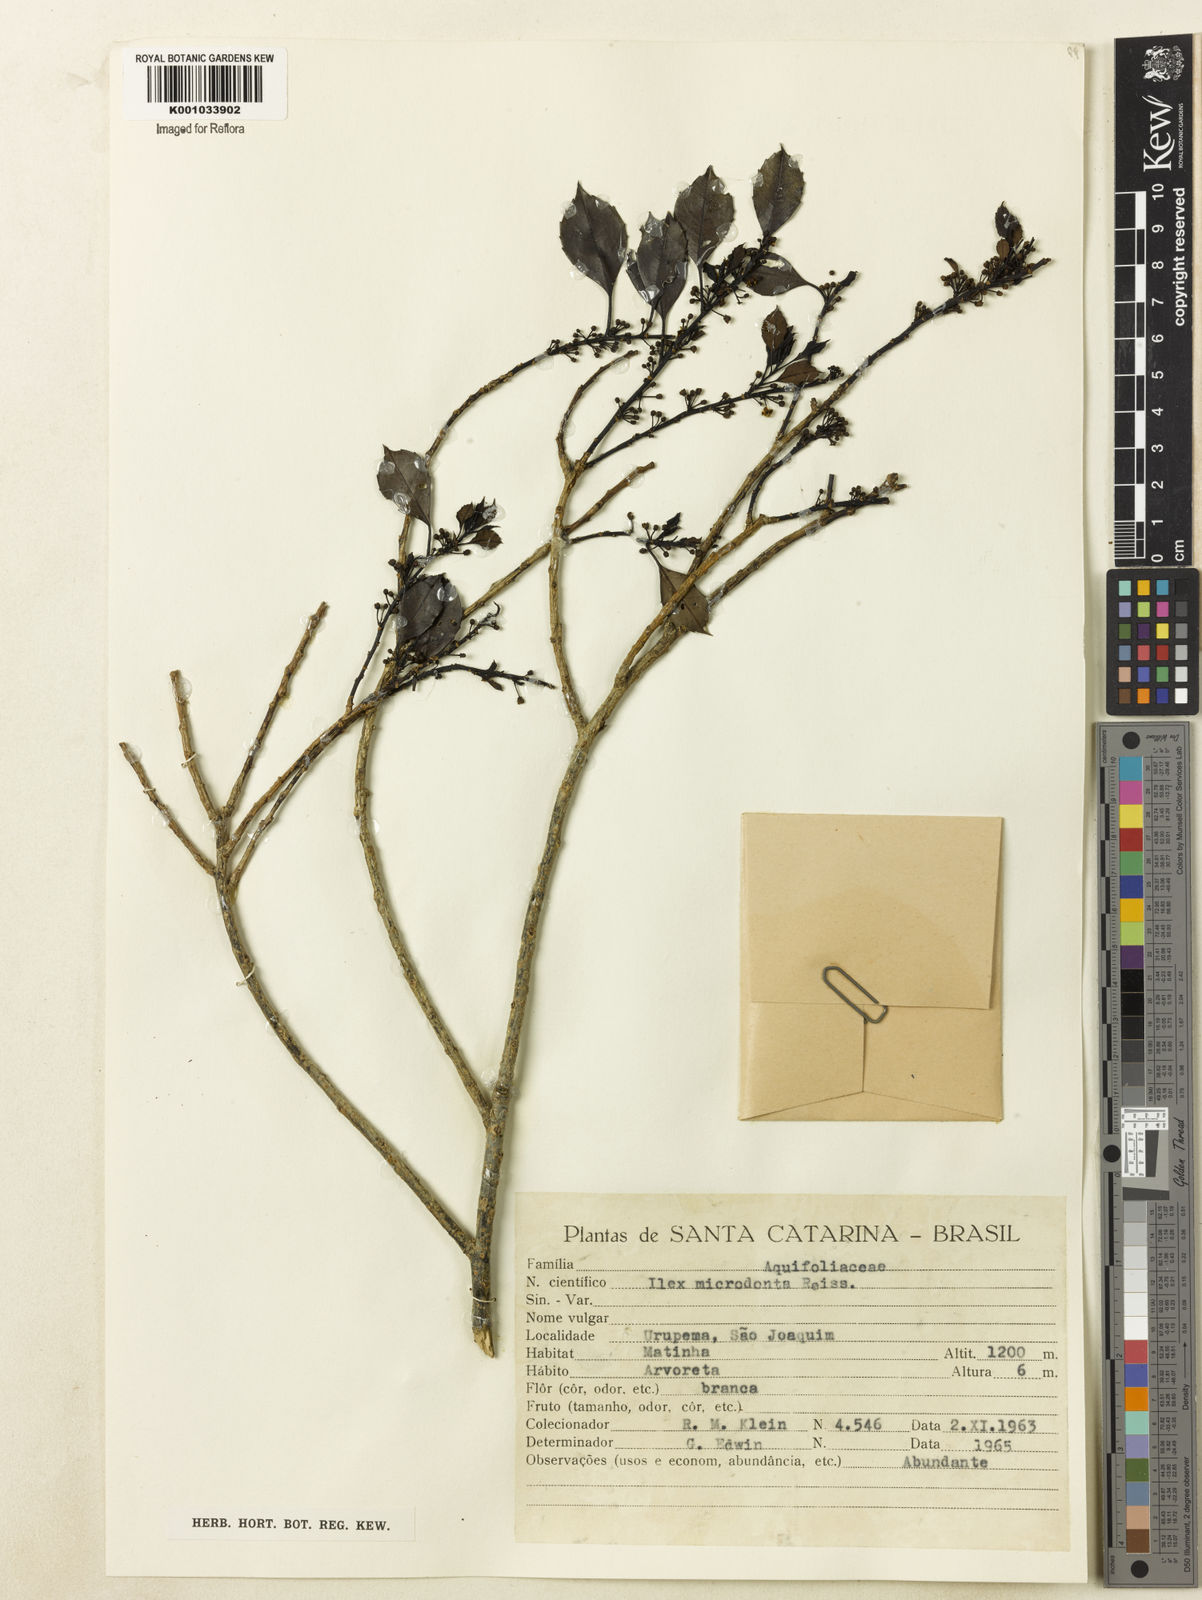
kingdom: Plantae
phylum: Tracheophyta
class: Magnoliopsida
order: Aquifoliales
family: Aquifoliaceae
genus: Ilex
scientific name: Ilex microdonta
